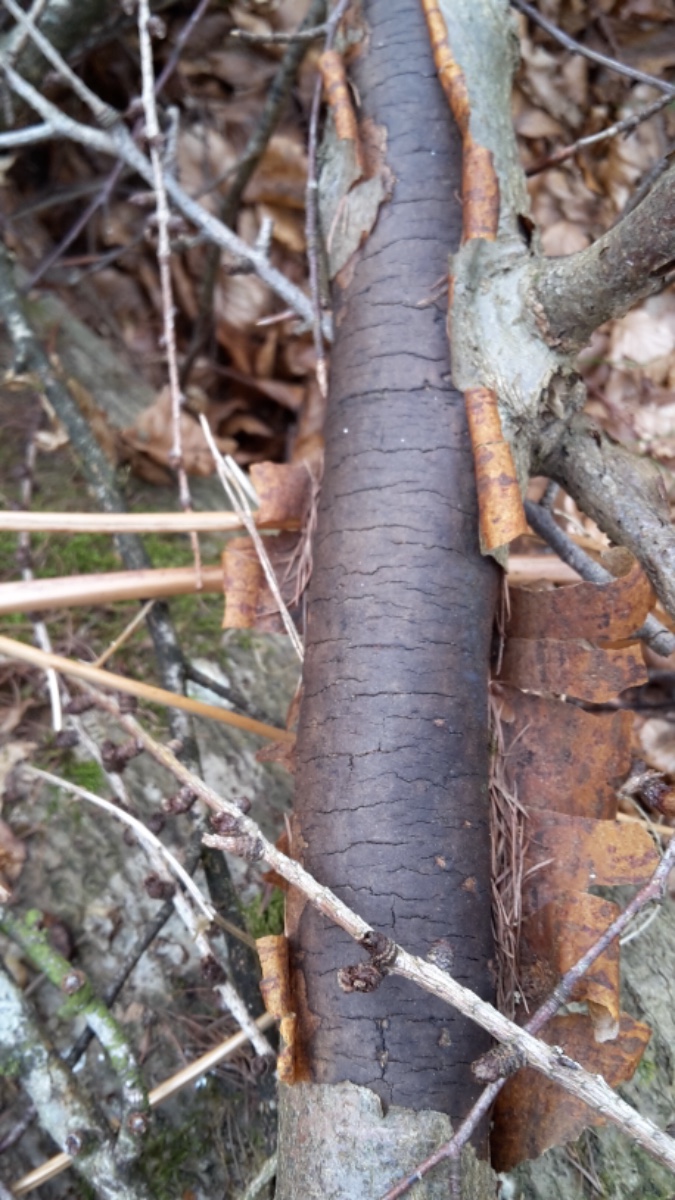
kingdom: Fungi
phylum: Ascomycota
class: Sordariomycetes
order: Xylariales
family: Diatrypaceae
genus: Diatrype
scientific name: Diatrype decorticata
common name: barksprænger-kulskorpe
